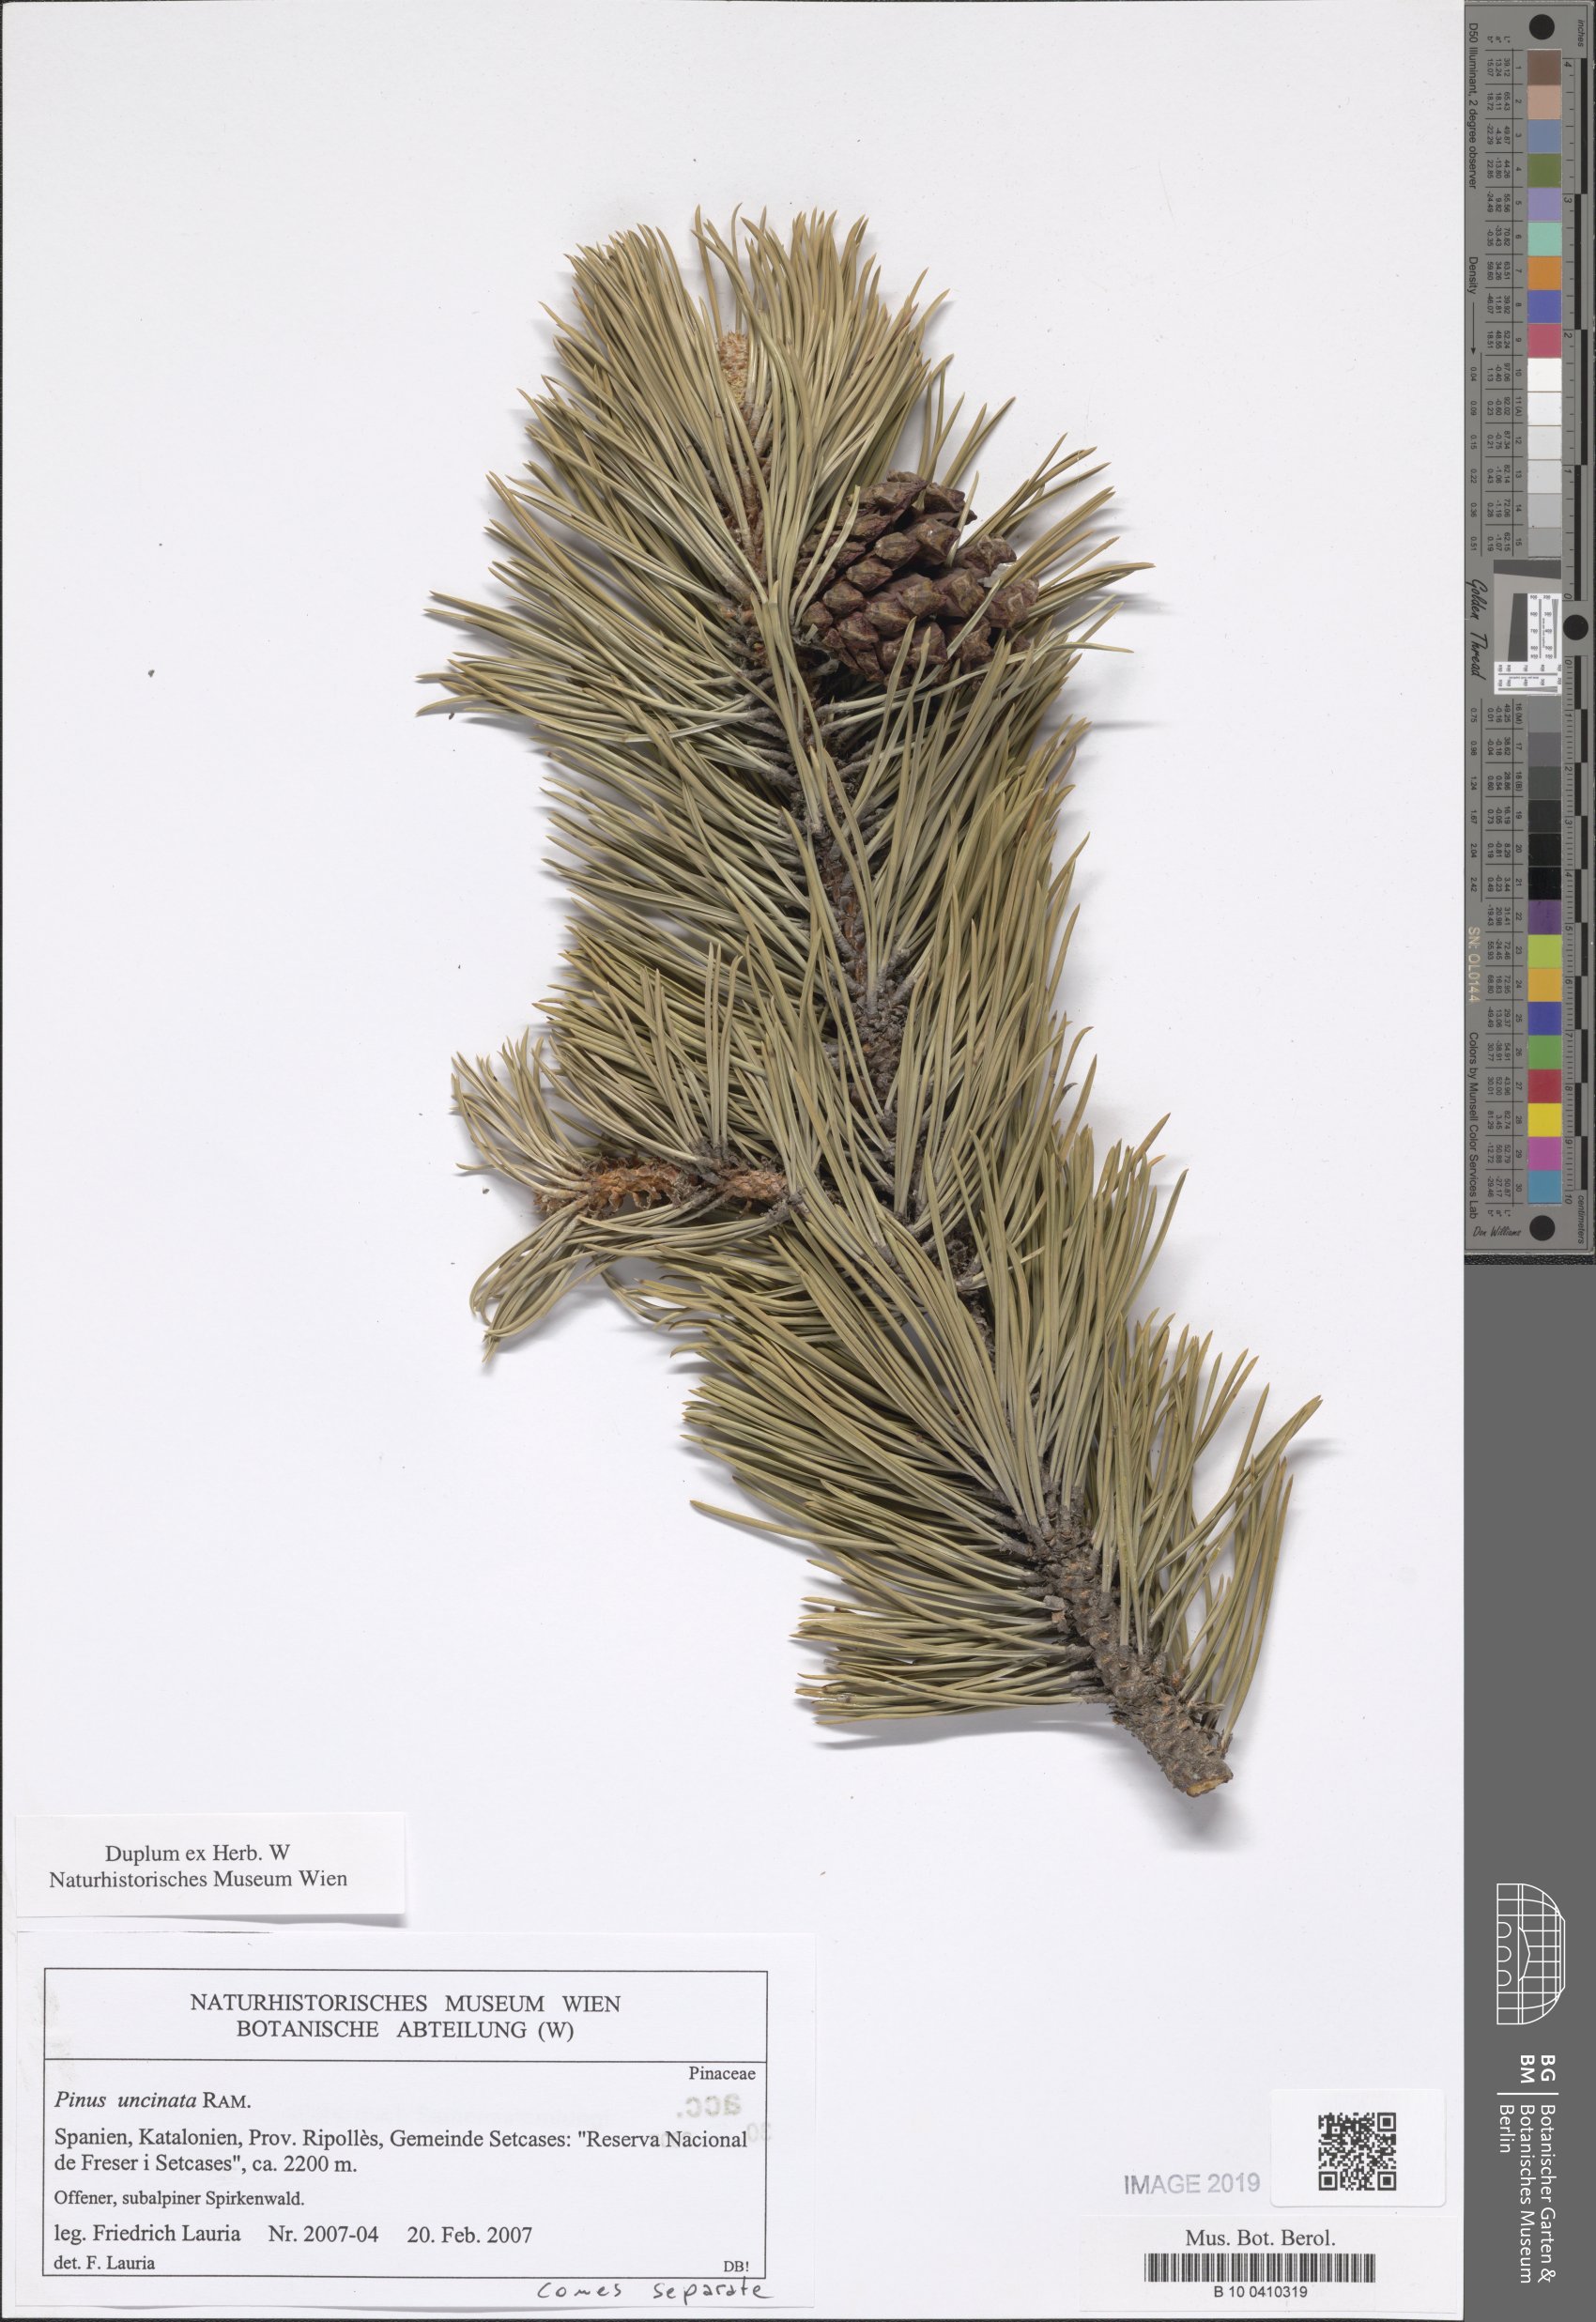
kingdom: Plantae
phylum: Tracheophyta
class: Pinopsida
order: Pinales
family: Pinaceae
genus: Pinus
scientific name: Pinus uncinata
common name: Mountain pine
